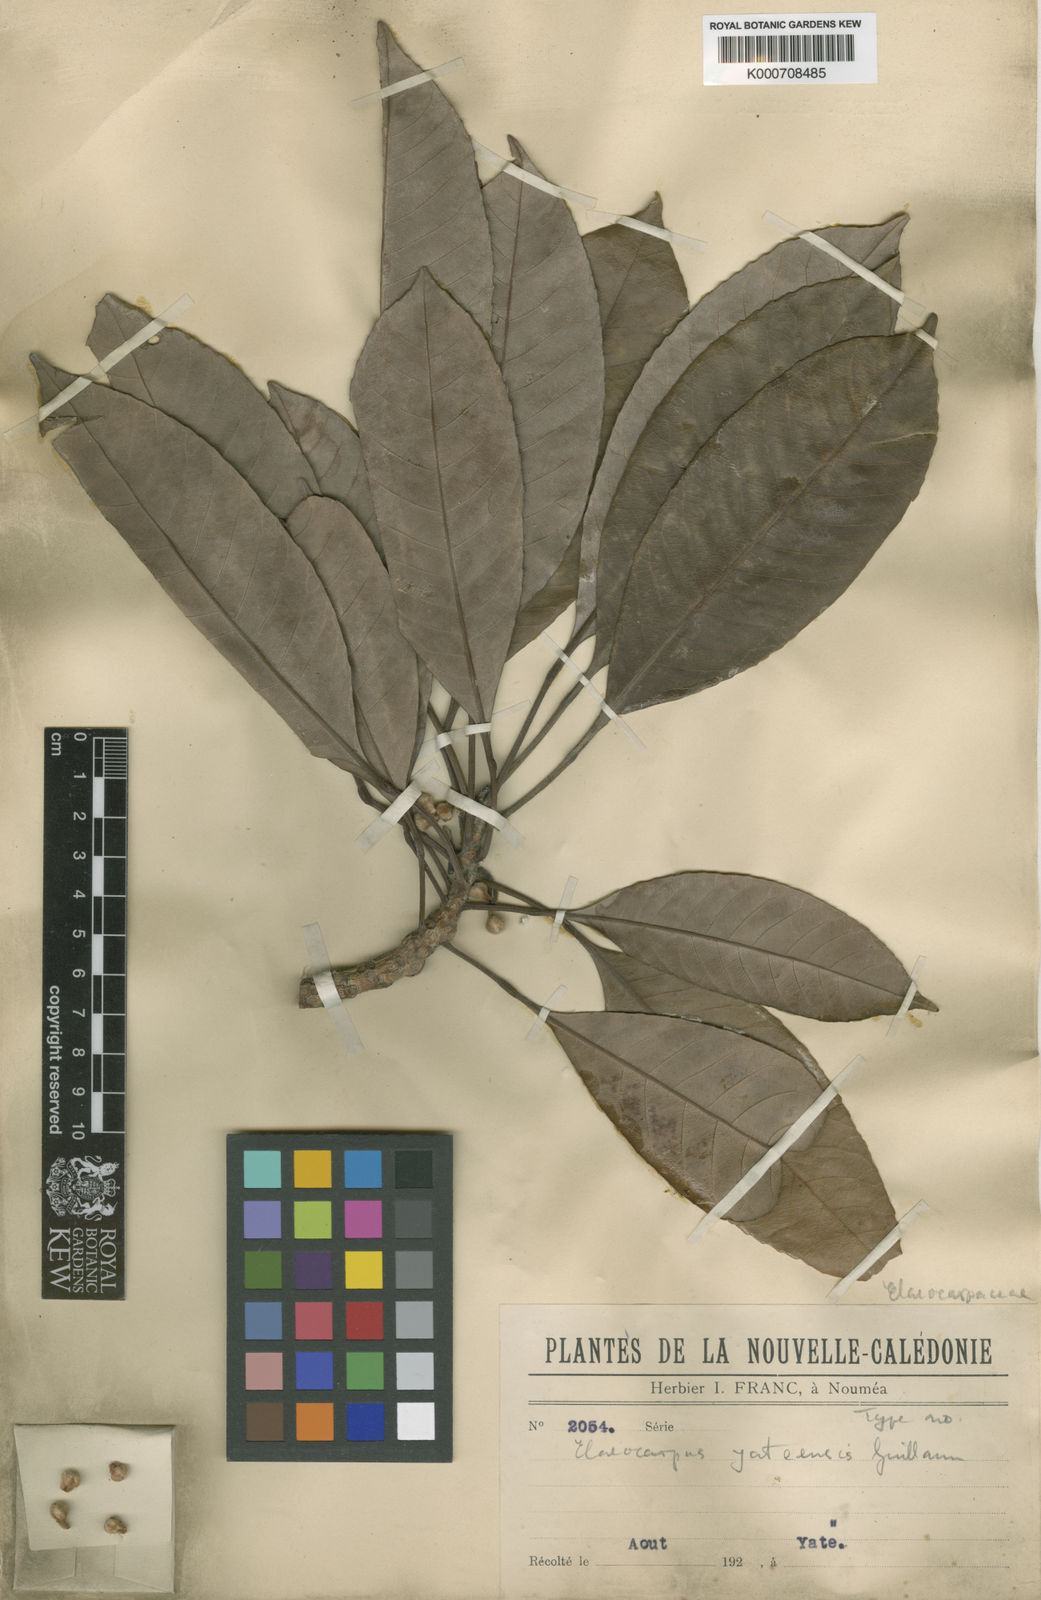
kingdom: Plantae
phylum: Tracheophyta
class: Magnoliopsida
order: Oxalidales
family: Elaeocarpaceae
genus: Elaeocarpus
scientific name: Elaeocarpus yateensis
